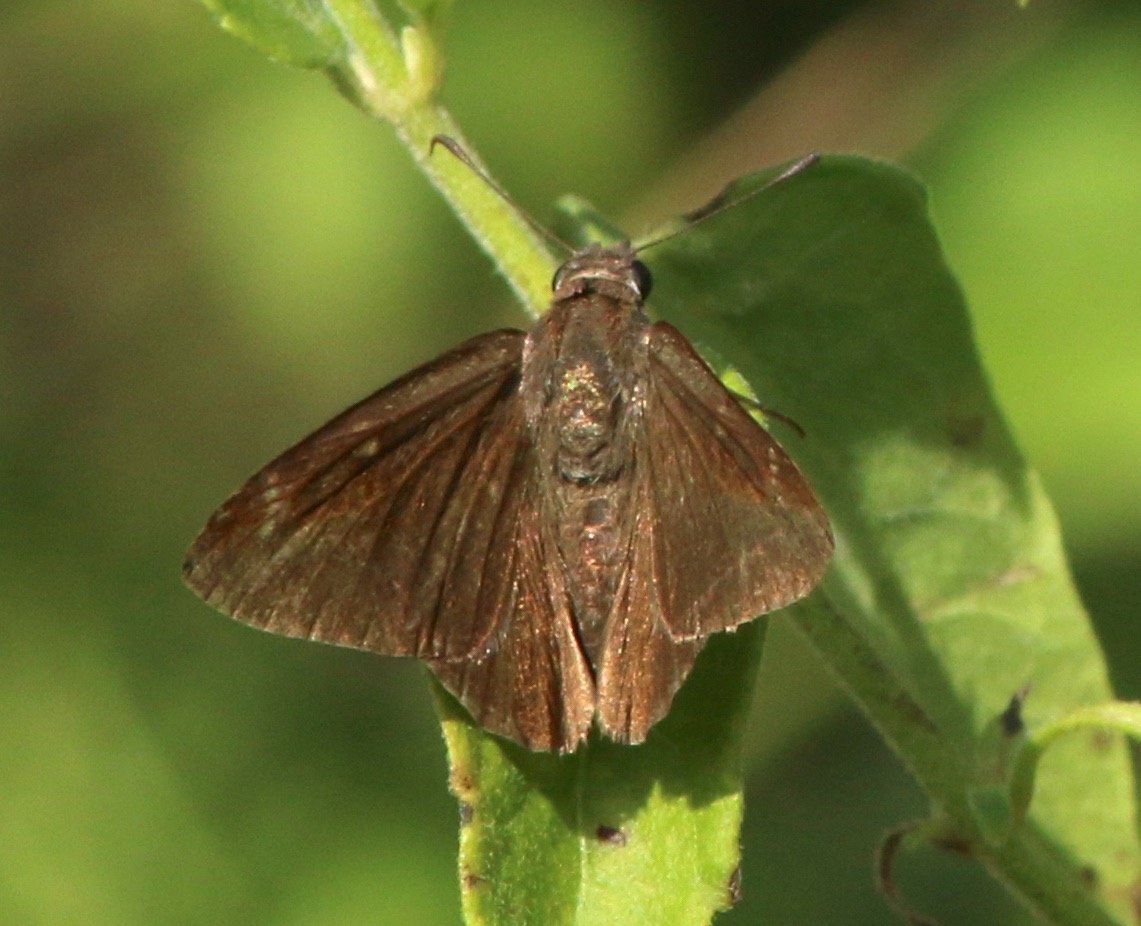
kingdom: Animalia
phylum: Arthropoda
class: Insecta
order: Lepidoptera
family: Hesperiidae
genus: Caicella
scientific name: Caicella calchas
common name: Mimosa Skipper
